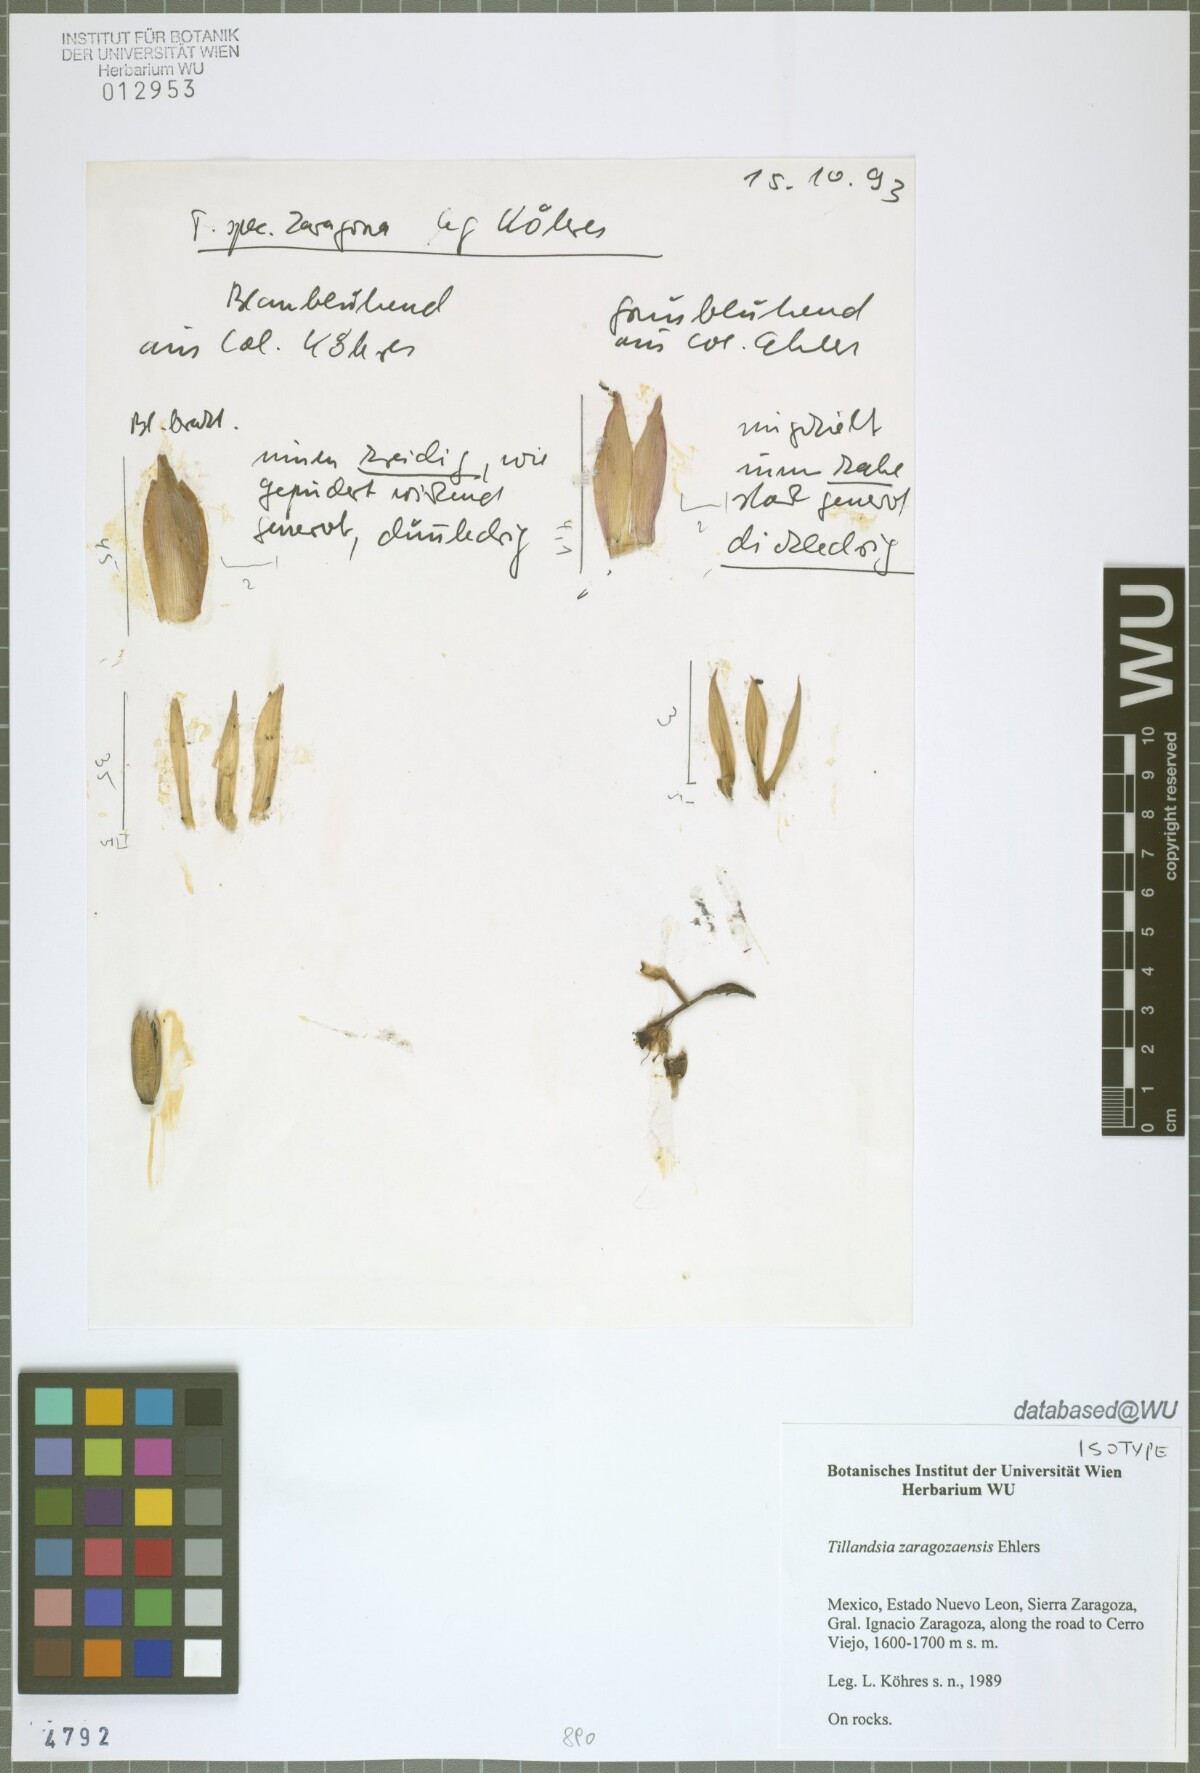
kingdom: Plantae
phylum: Tracheophyta
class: Liliopsida
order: Poales
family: Bromeliaceae
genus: Tillandsia
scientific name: Tillandsia zaragozaensis
